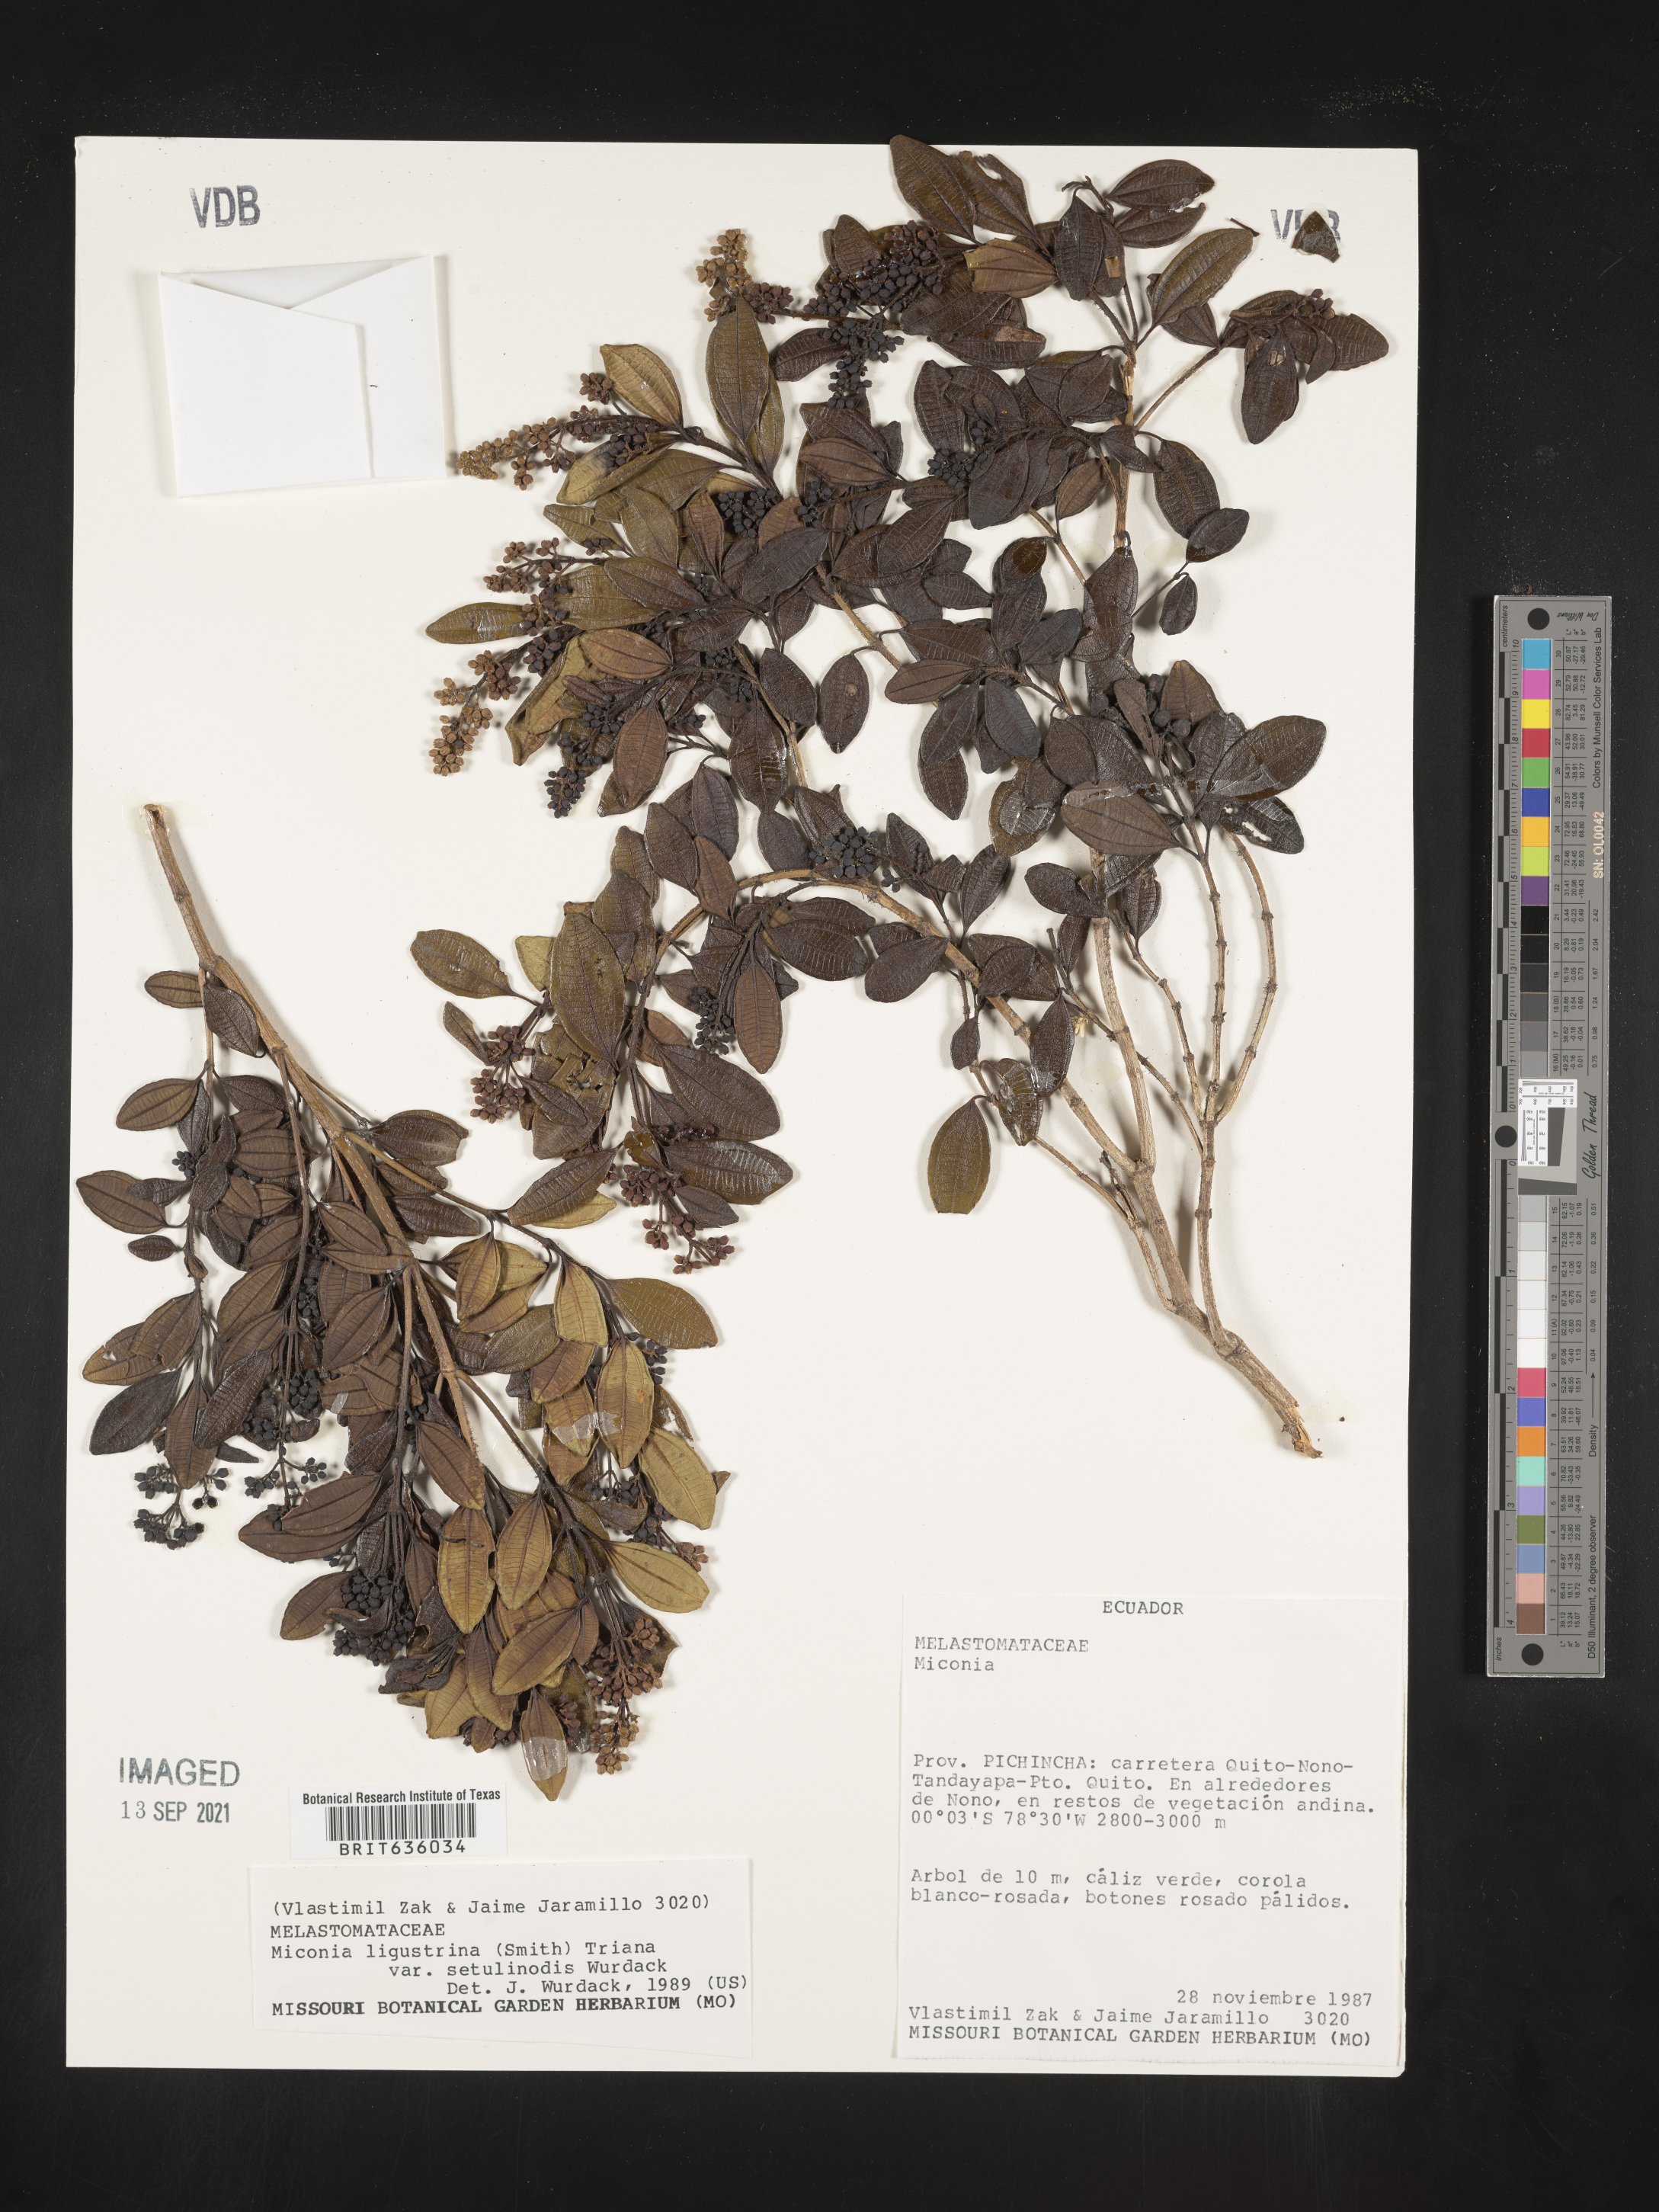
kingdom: Plantae
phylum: Tracheophyta
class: Magnoliopsida
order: Myrtales
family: Melastomataceae
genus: Miconia
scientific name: Miconia
